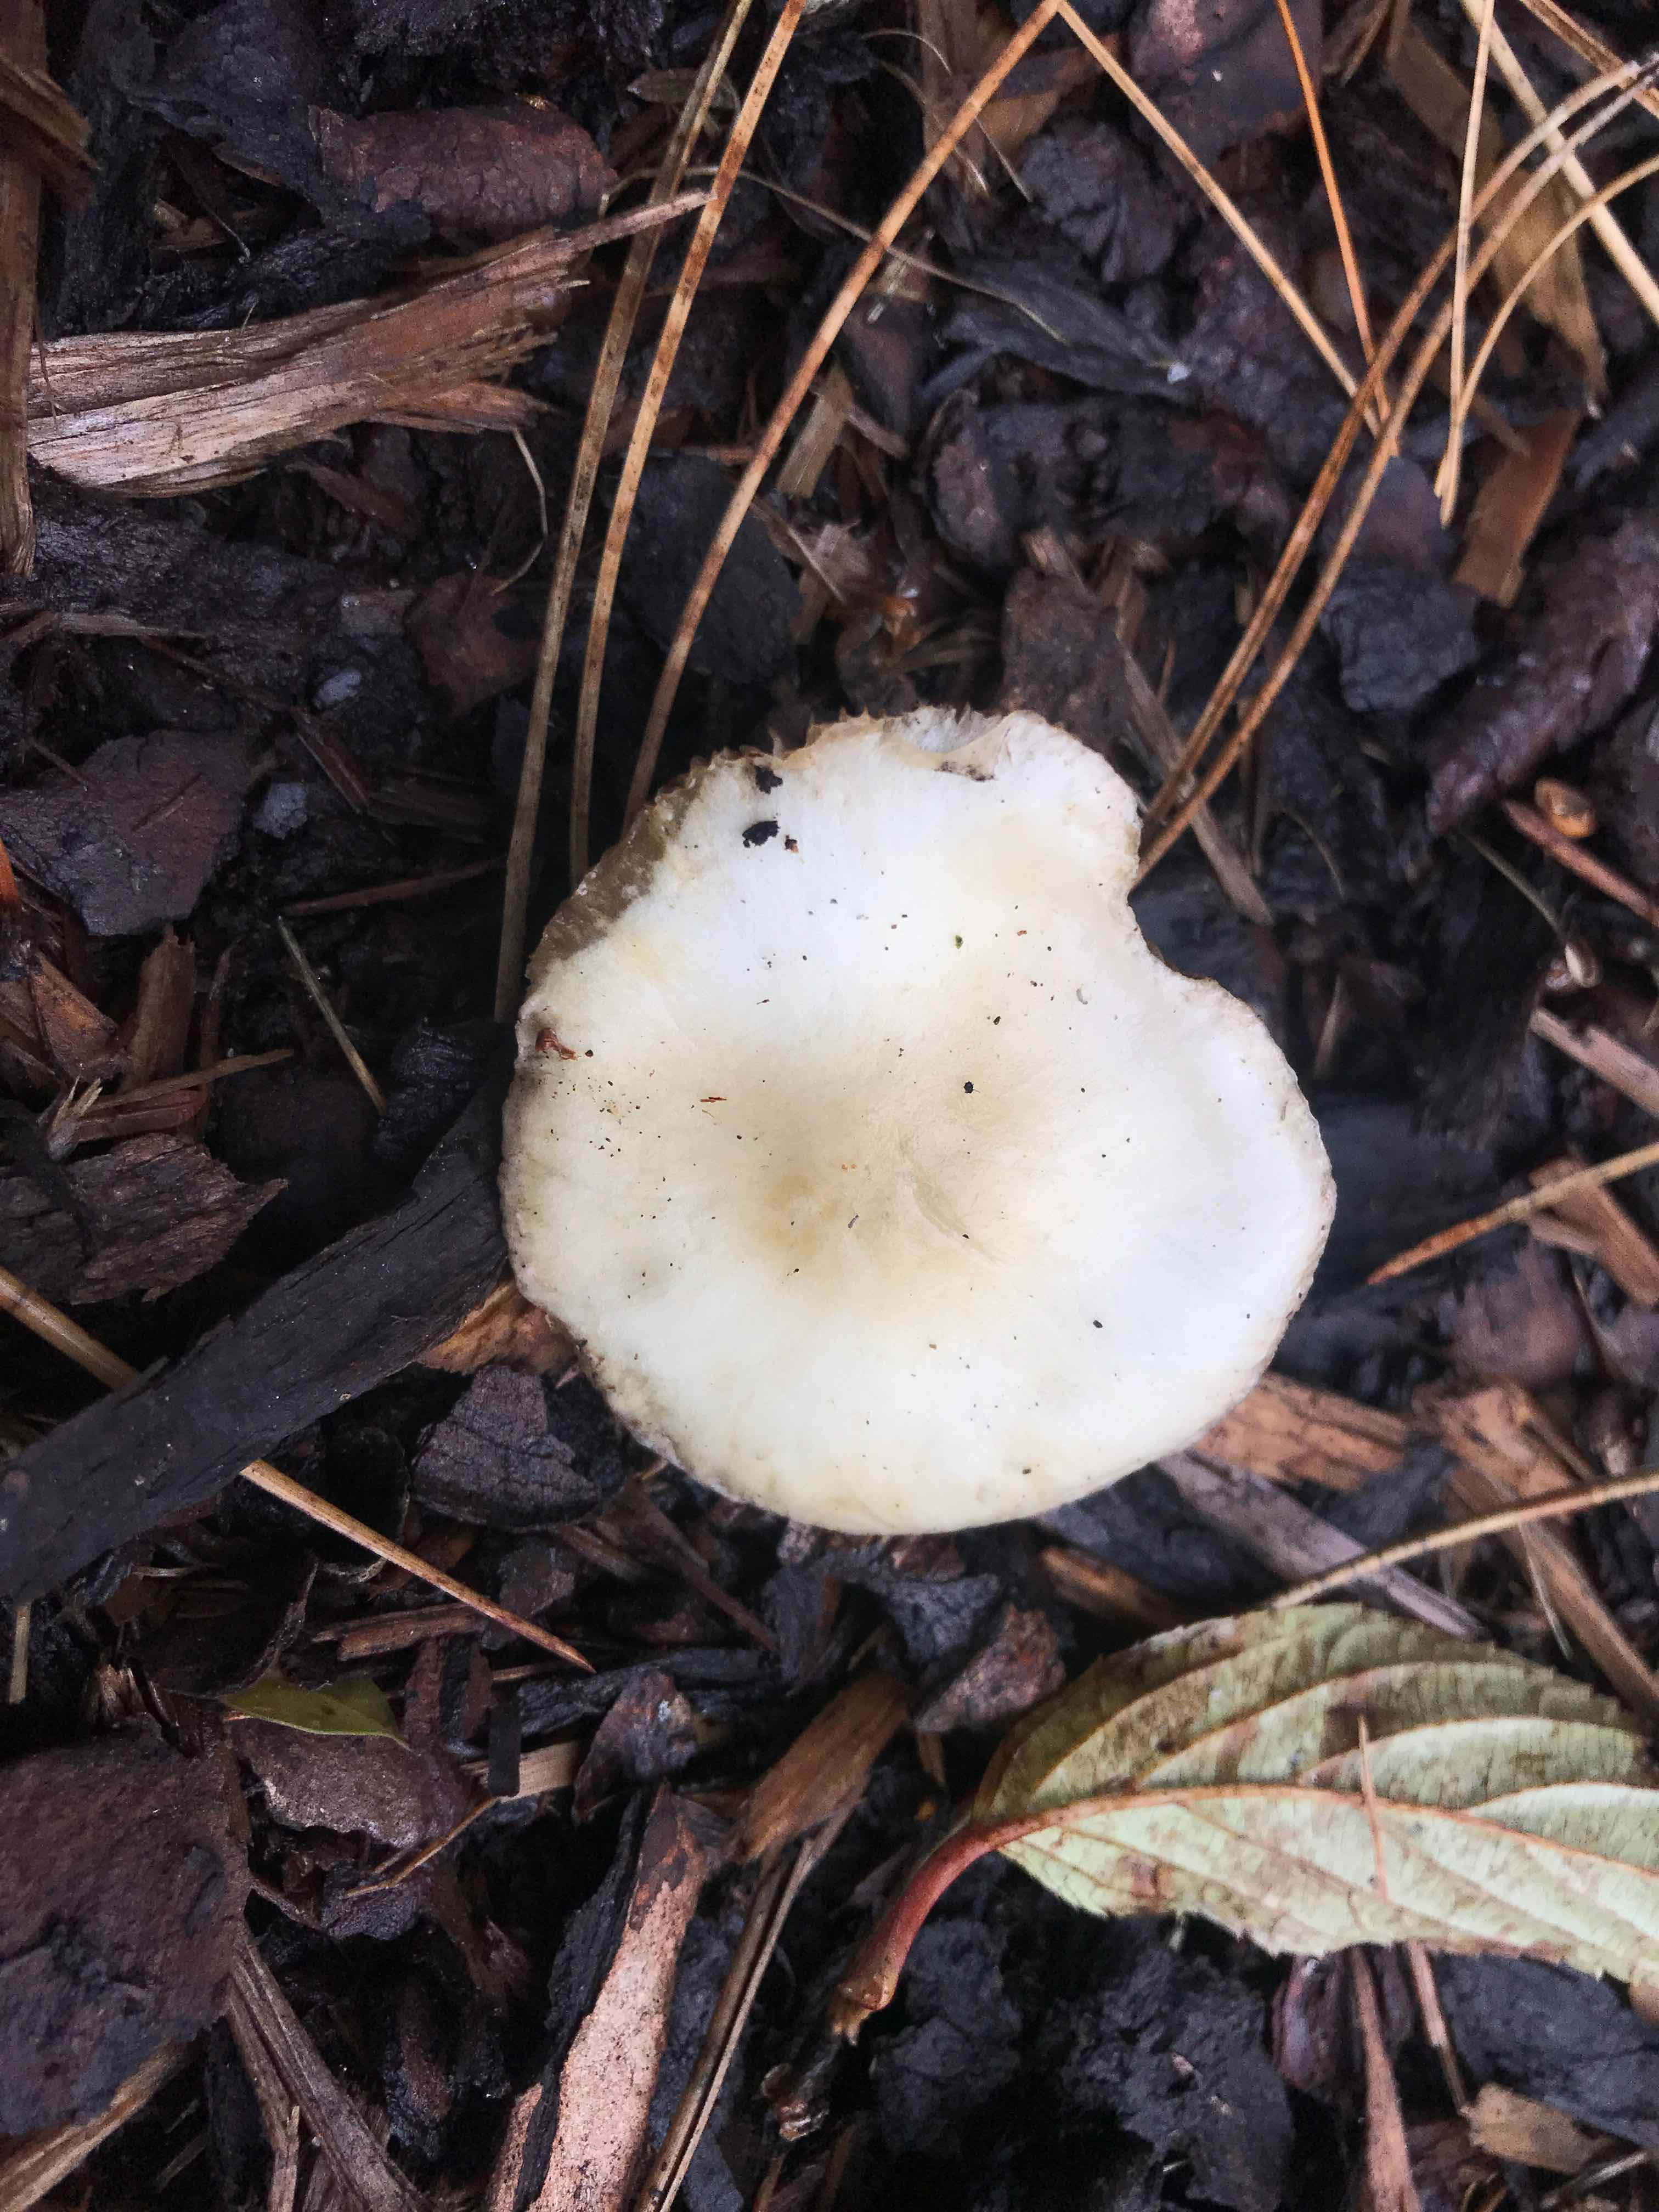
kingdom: Fungi
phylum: Basidiomycota
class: Agaricomycetes
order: Agaricales
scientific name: Agaricales
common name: champignonordenen
